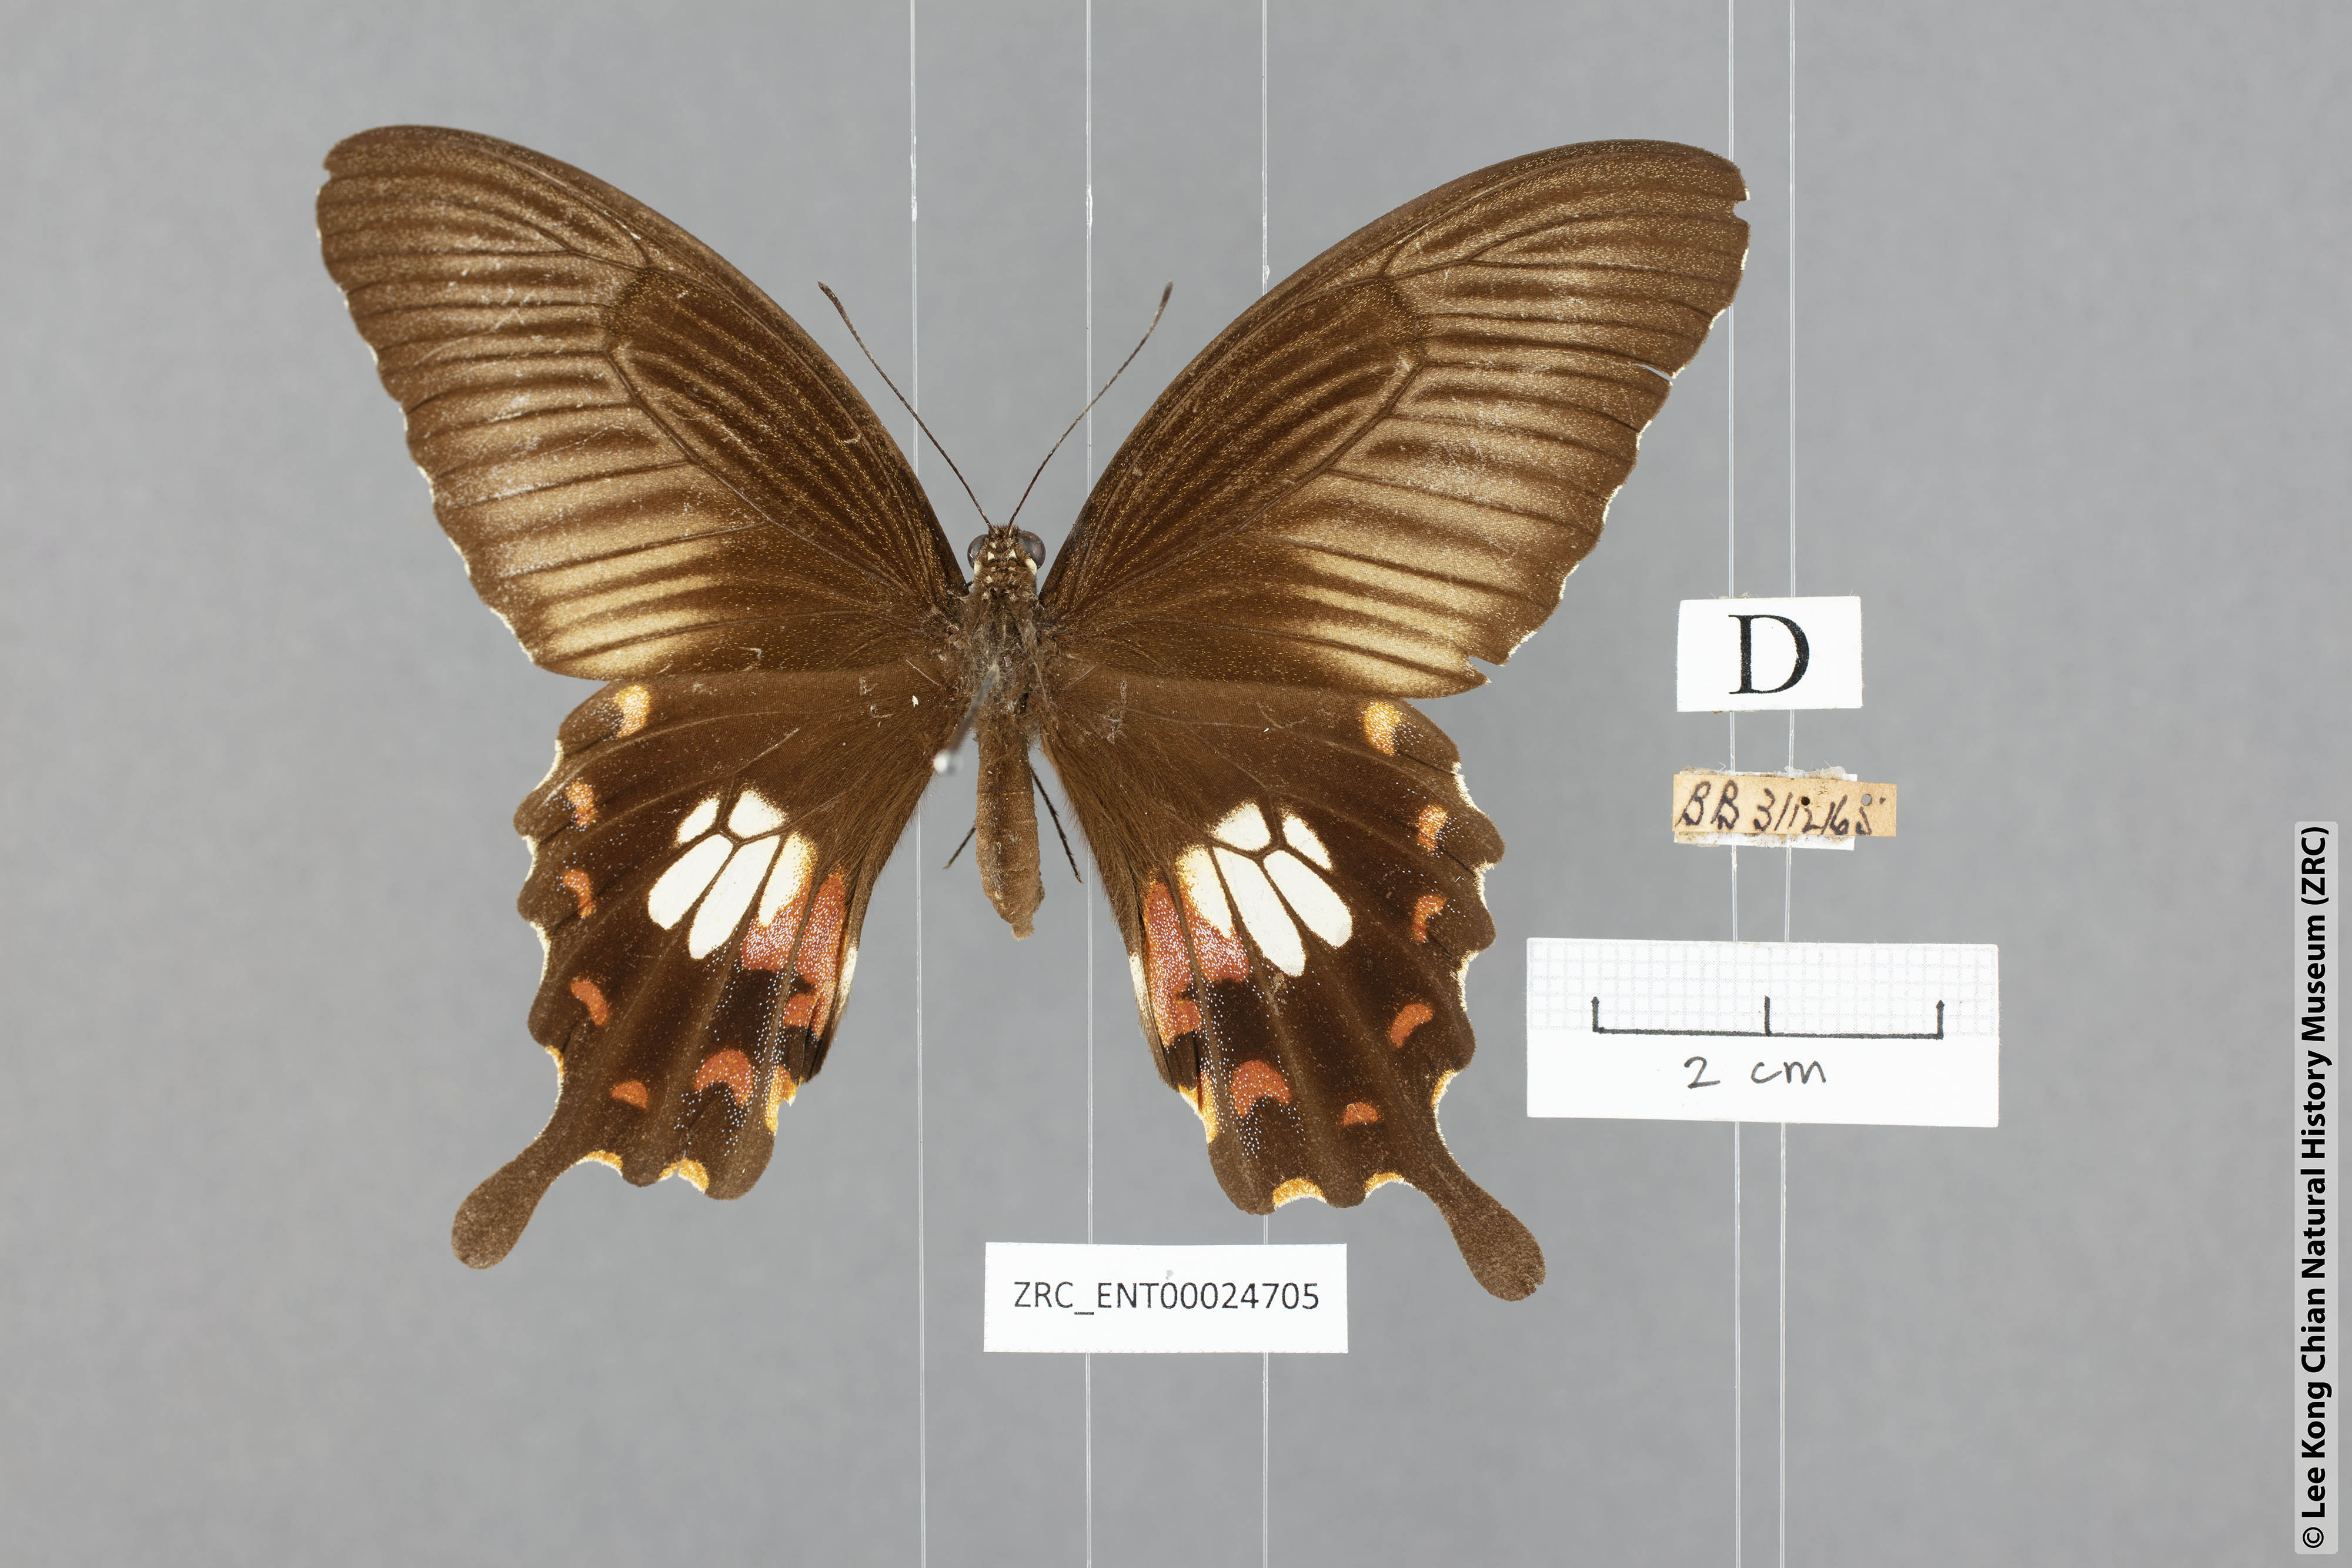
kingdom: Animalia
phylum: Arthropoda
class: Insecta
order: Lepidoptera
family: Papilionidae
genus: Papilio
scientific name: Papilio polytes
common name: Common mormon
